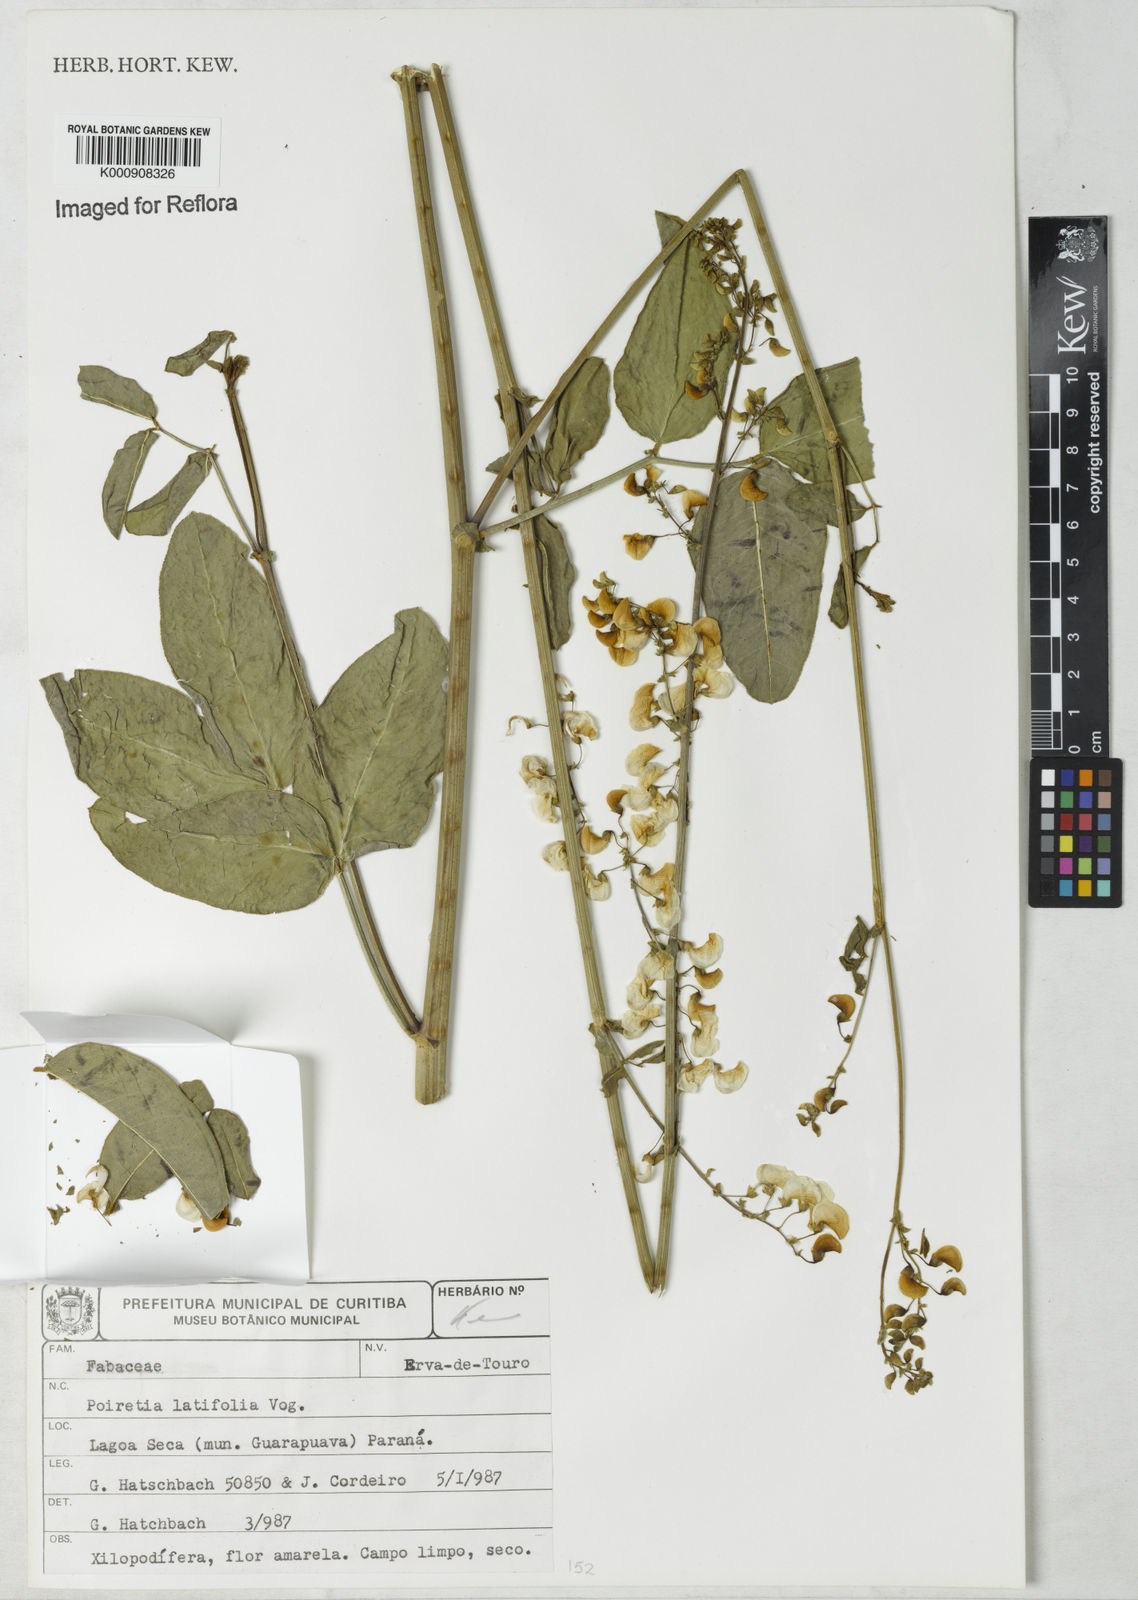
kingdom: Plantae
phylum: Tracheophyta
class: Magnoliopsida
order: Fabales
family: Fabaceae
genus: Poiretia
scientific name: Poiretia latifolia
